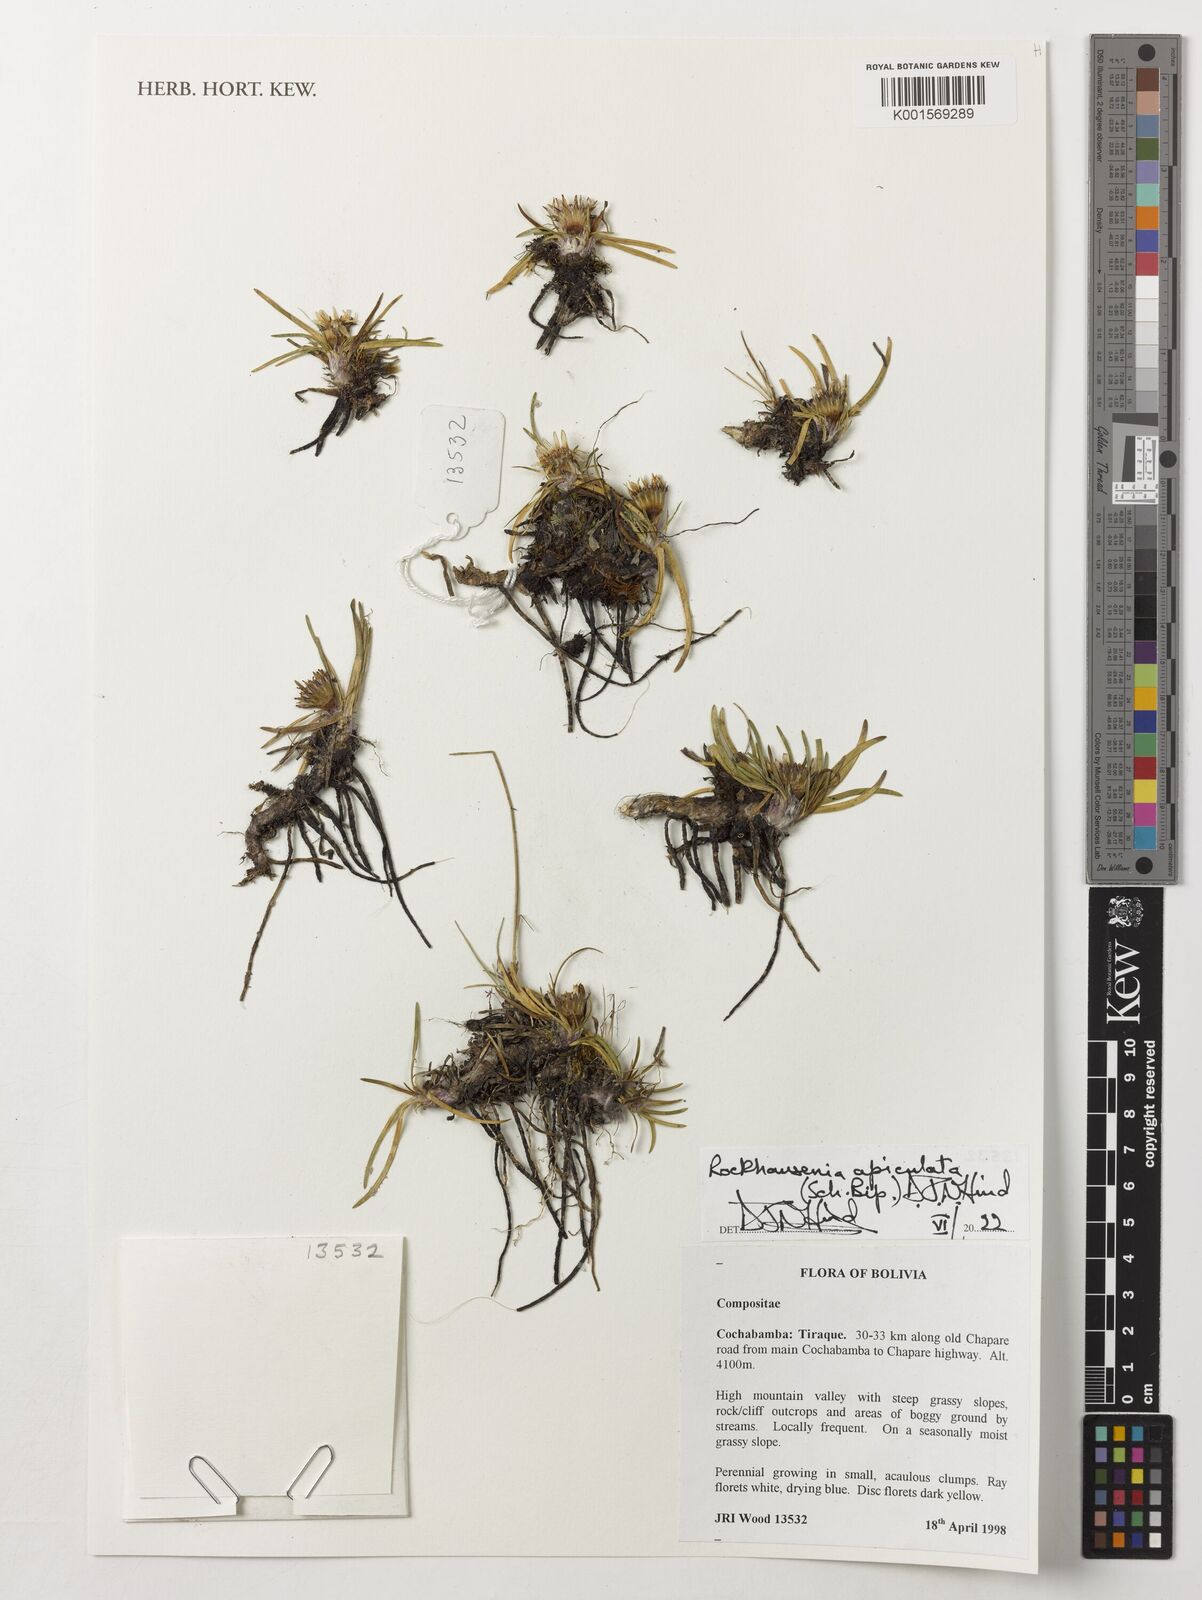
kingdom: Plantae
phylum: Tracheophyta
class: Magnoliopsida
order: Asterales
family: Asteraceae
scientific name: Asteraceae
